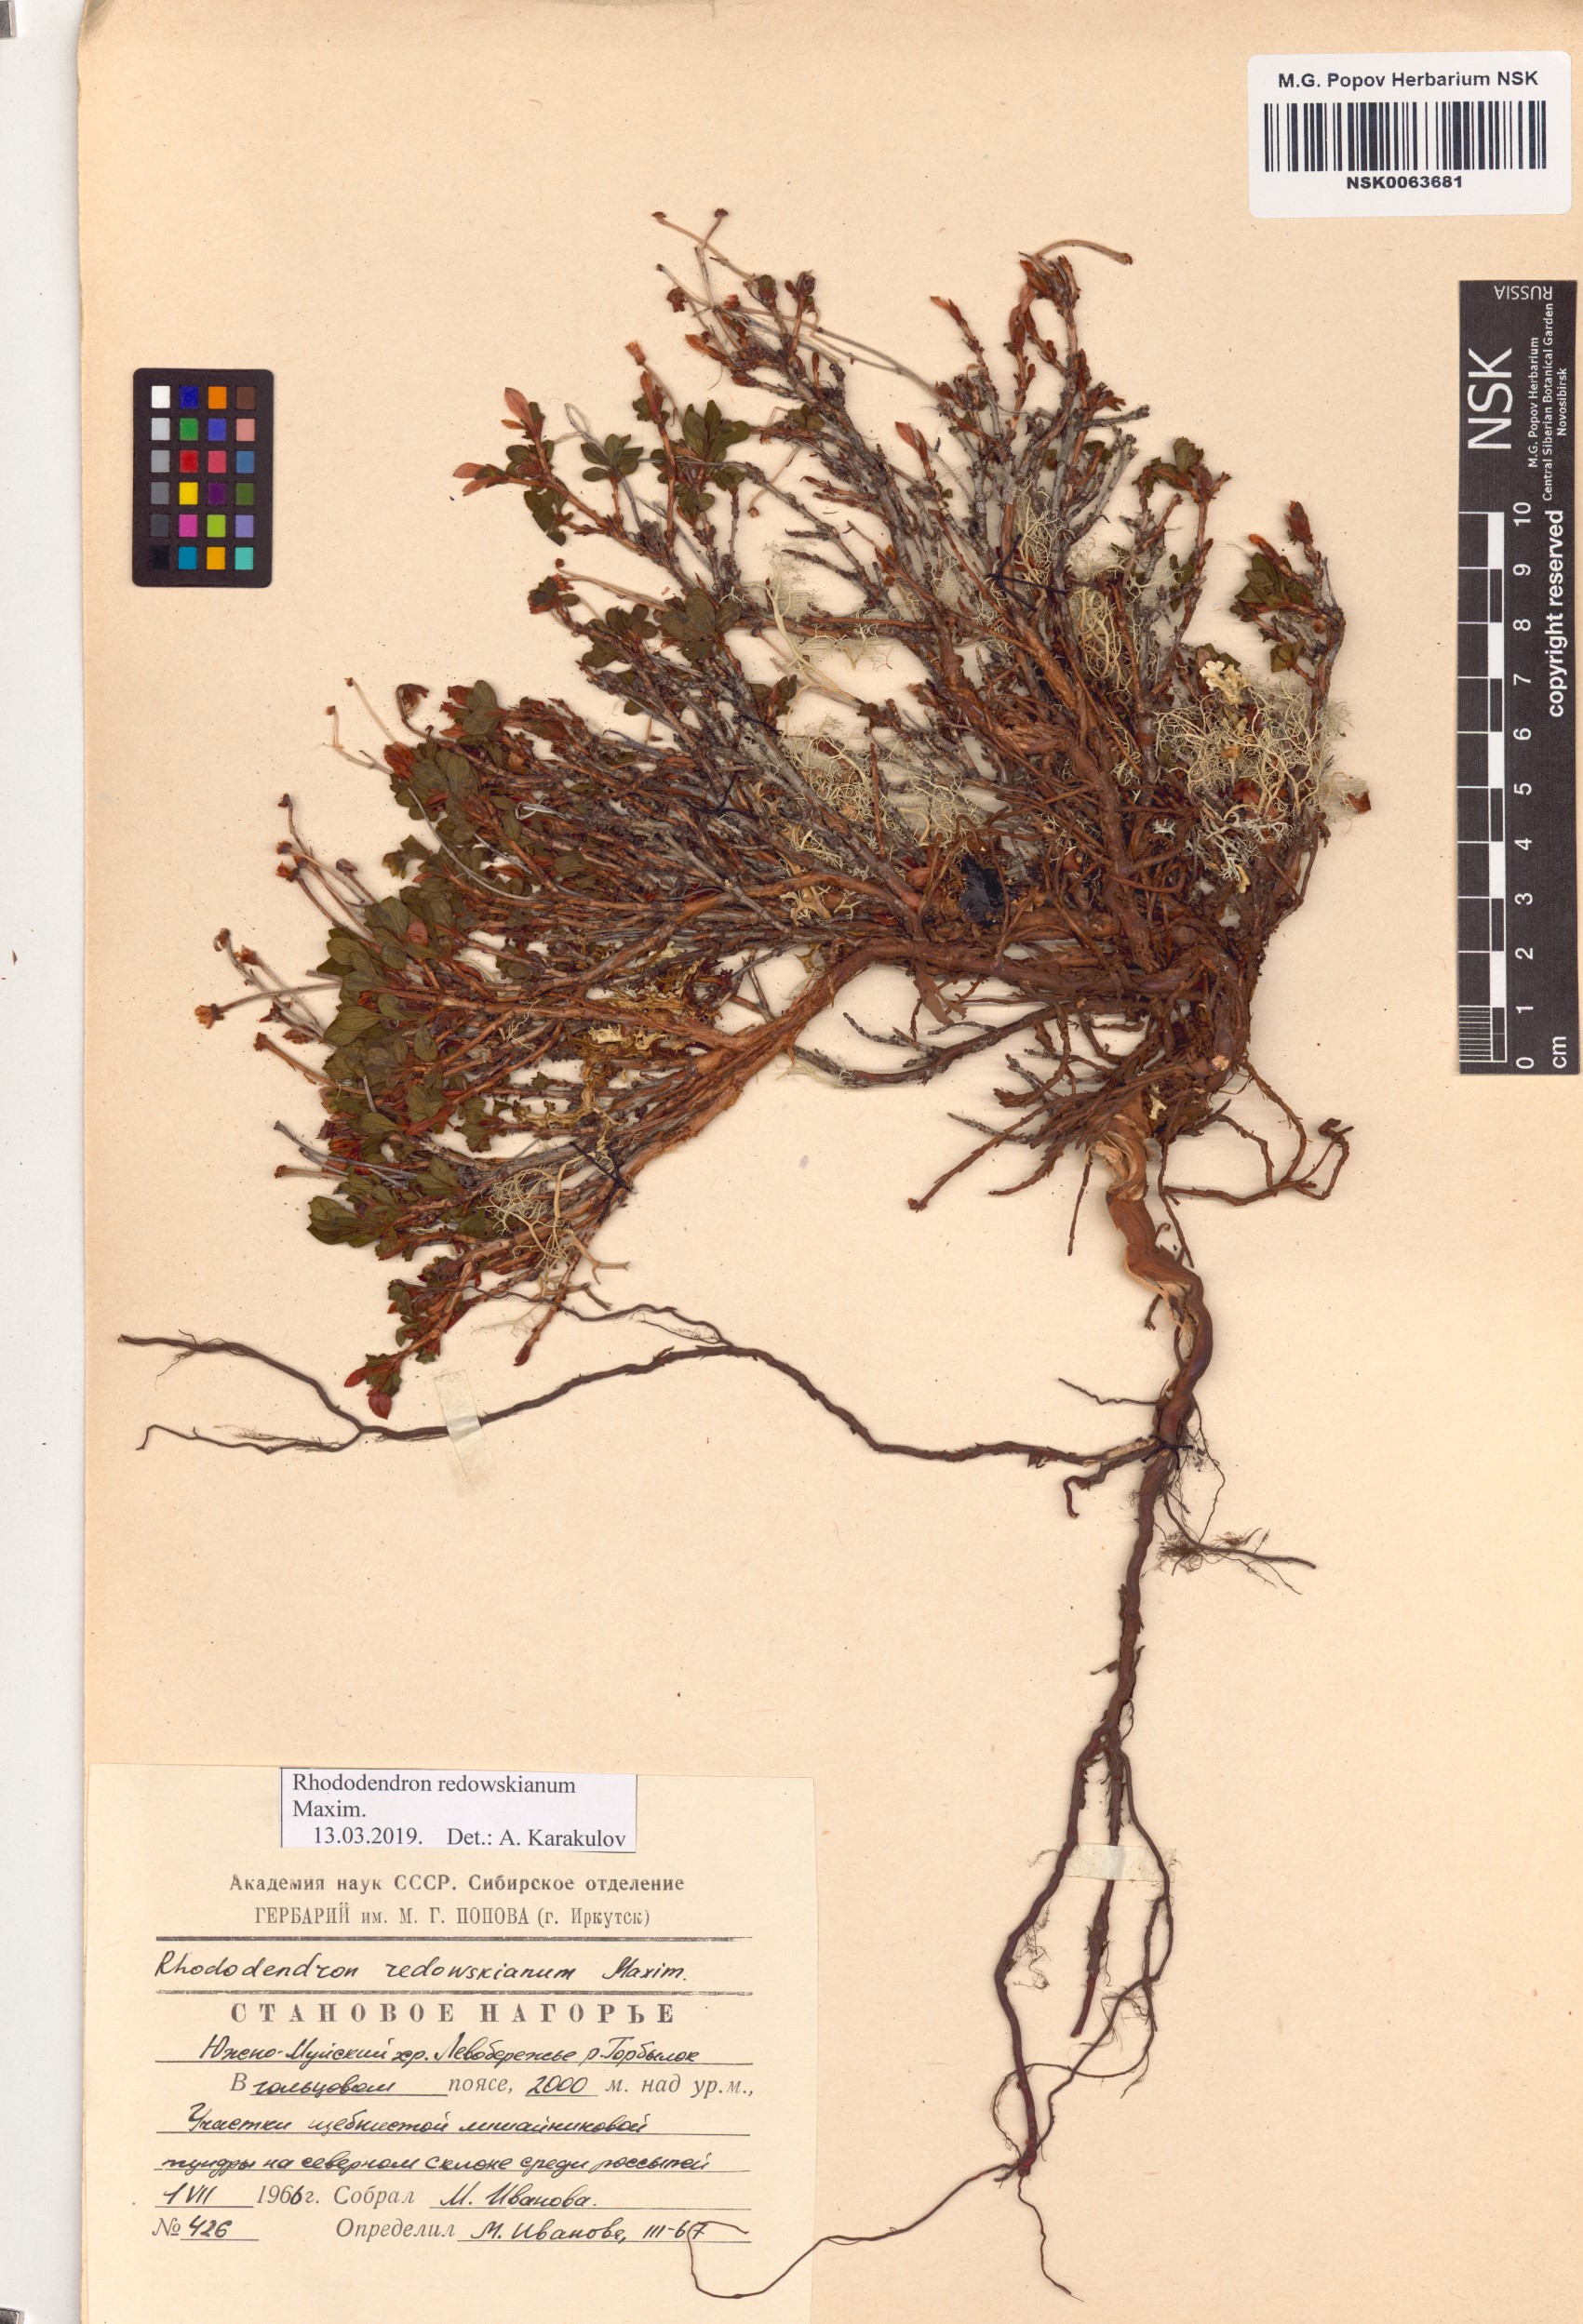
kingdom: Plantae
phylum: Tracheophyta
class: Magnoliopsida
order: Ericales
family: Ericaceae
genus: Rhododendron
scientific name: Rhododendron redowskianum
